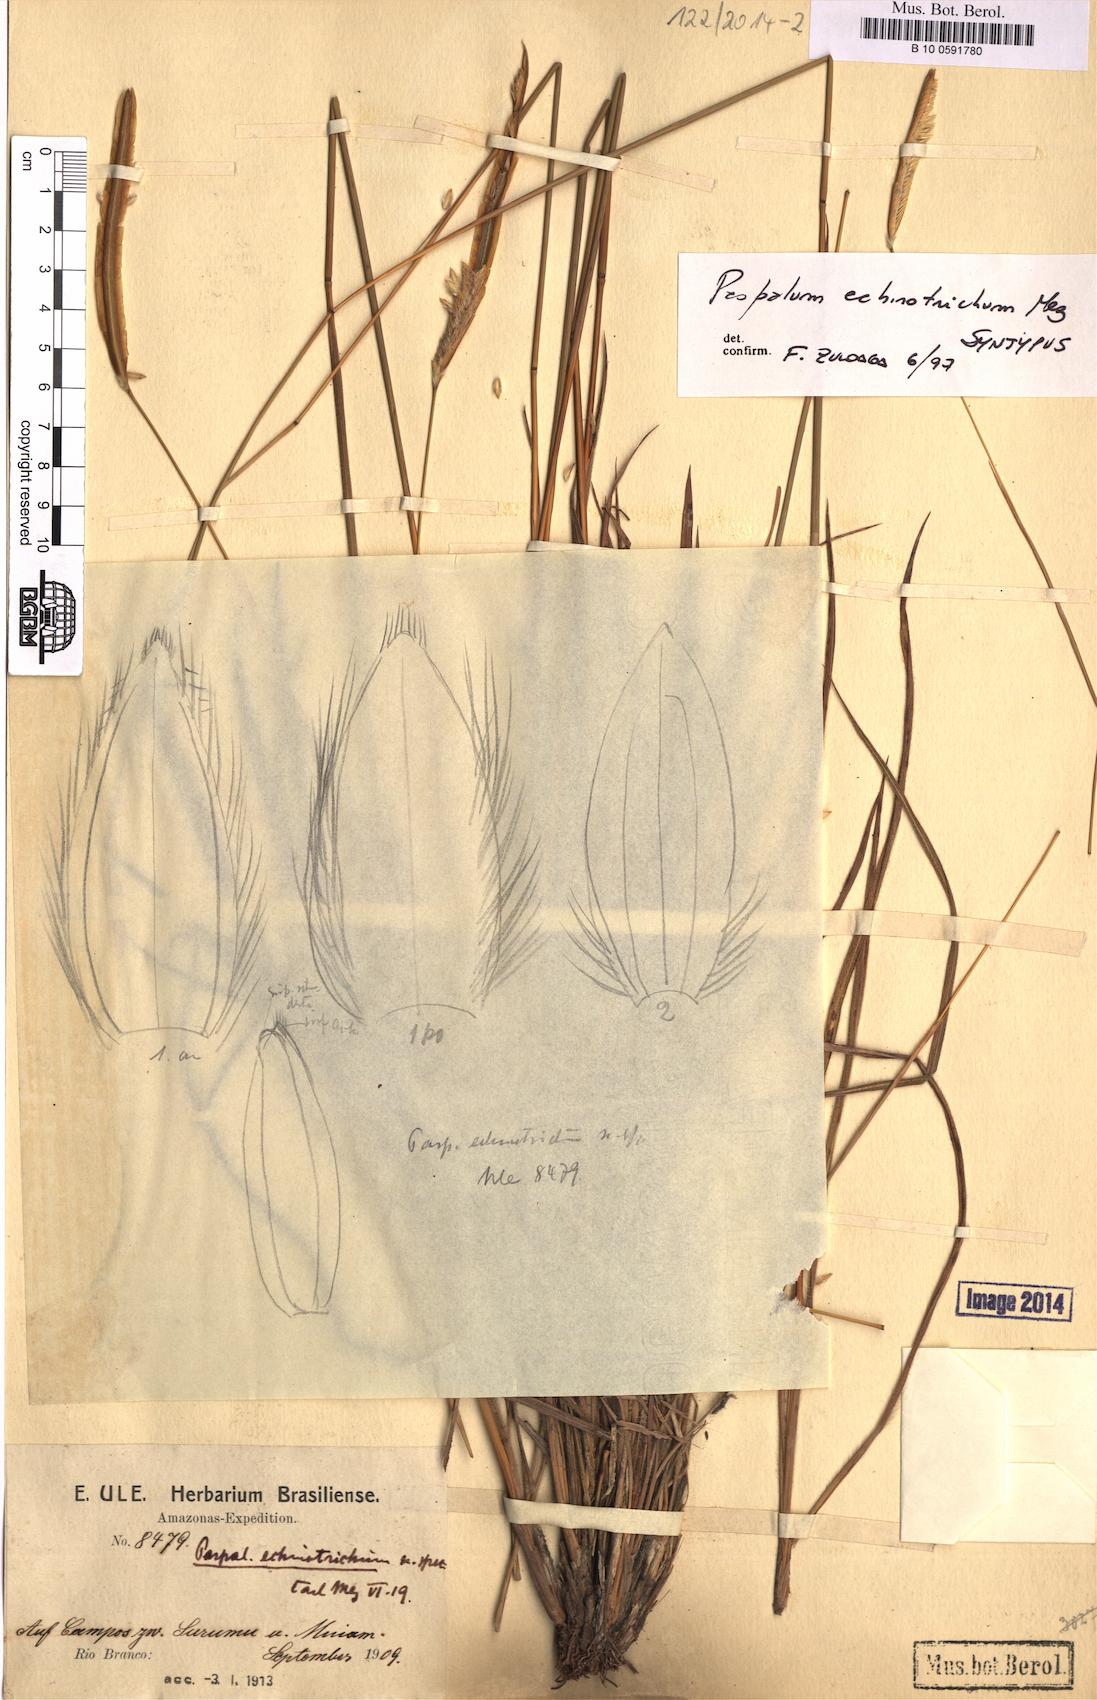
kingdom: Plantae
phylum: Tracheophyta
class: Liliopsida
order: Poales
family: Poaceae
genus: Paspalum
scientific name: Paspalum lanciflorum
